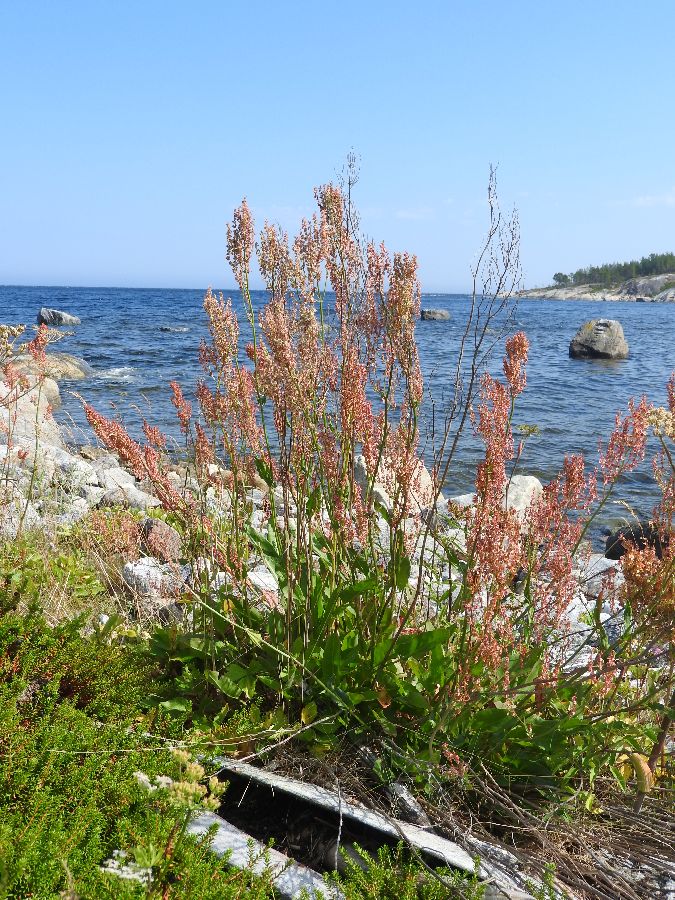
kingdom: Plantae
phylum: Tracheophyta
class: Magnoliopsida
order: Caryophyllales
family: Polygonaceae
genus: Rumex
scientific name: Rumex thyrsiflorus
